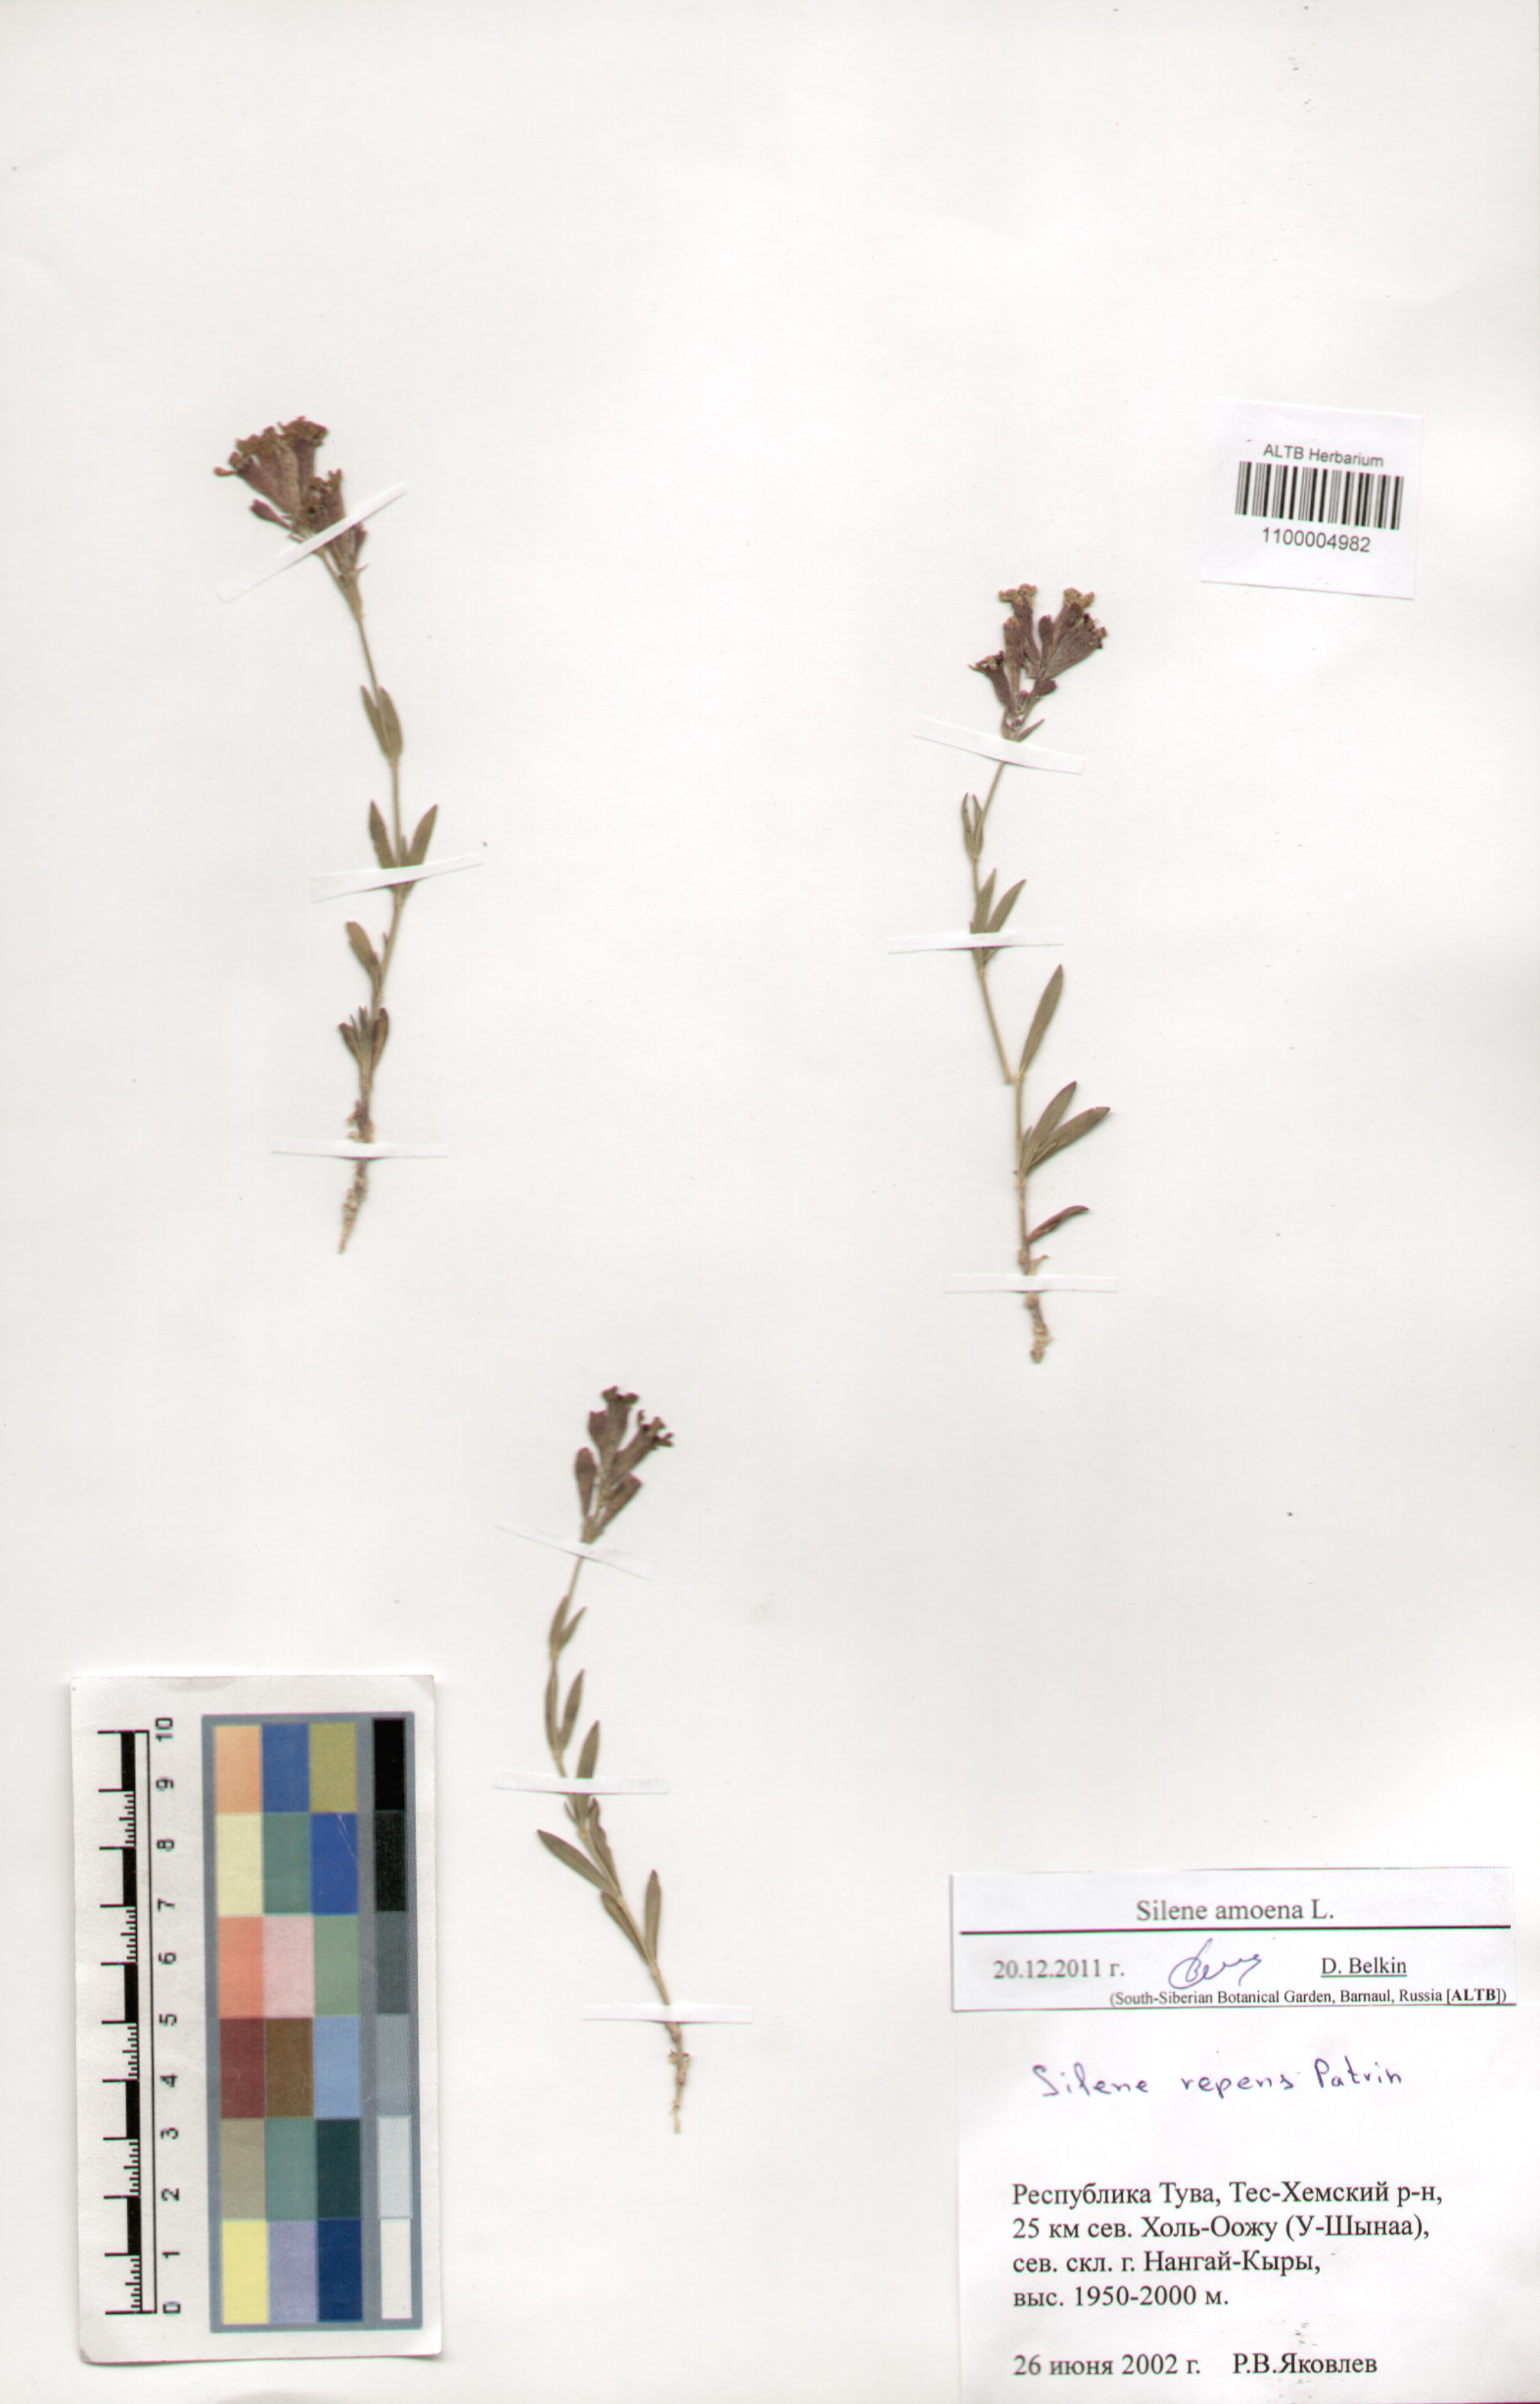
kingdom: Plantae
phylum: Tracheophyta
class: Magnoliopsida
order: Caryophyllales
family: Caryophyllaceae
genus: Silene
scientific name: Silene amoena
